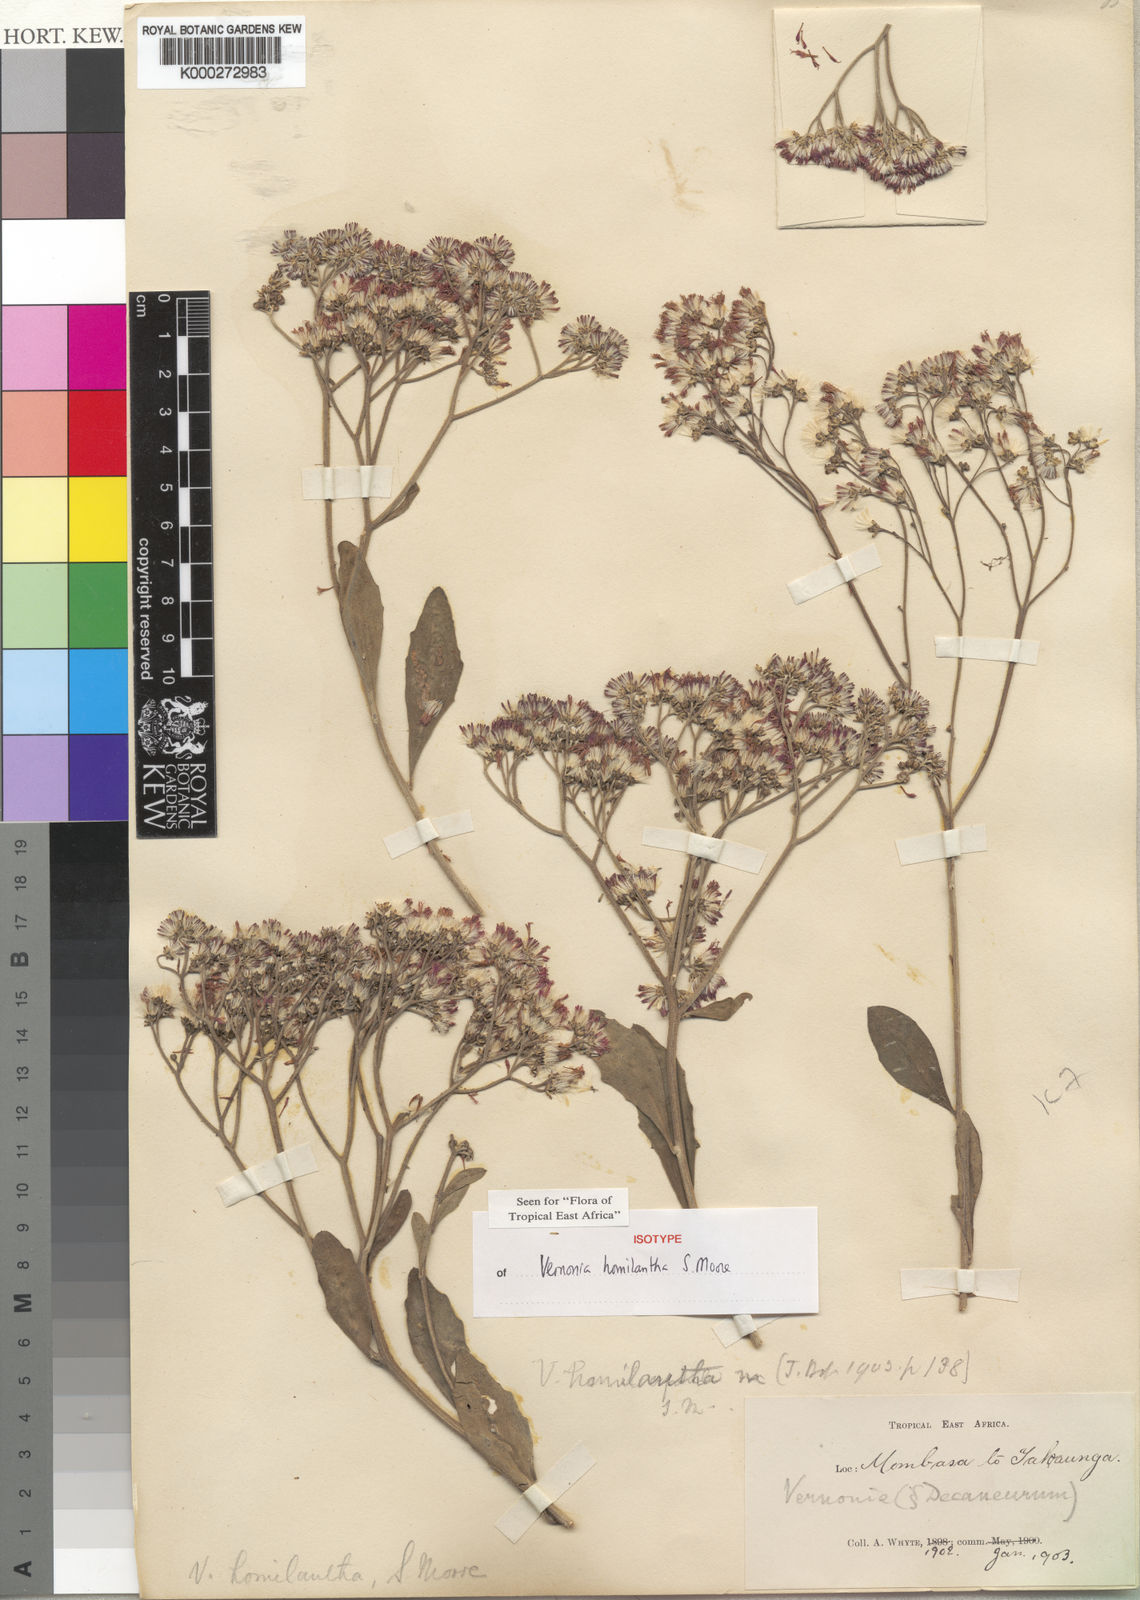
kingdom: Plantae
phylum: Tracheophyta
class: Magnoliopsida
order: Asterales
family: Asteraceae
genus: Orbivestus
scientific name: Orbivestus homilanthus
